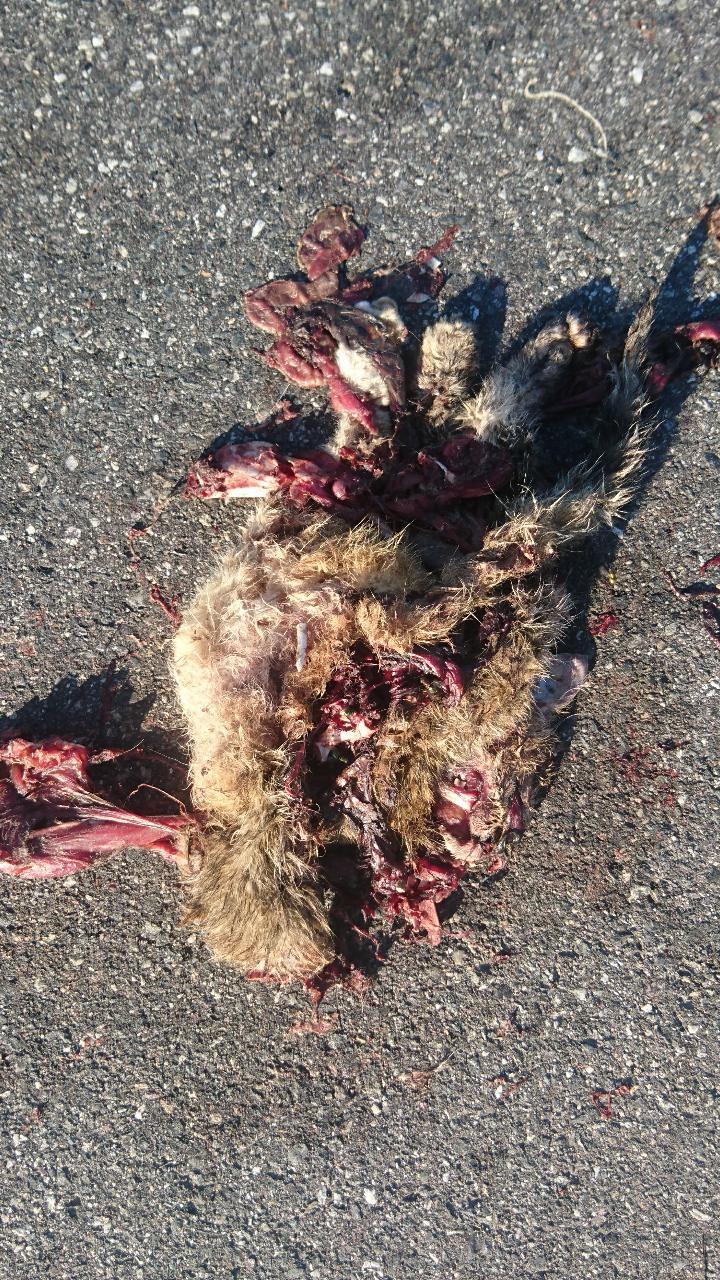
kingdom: Animalia
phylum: Chordata
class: Mammalia
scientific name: Mammalia
